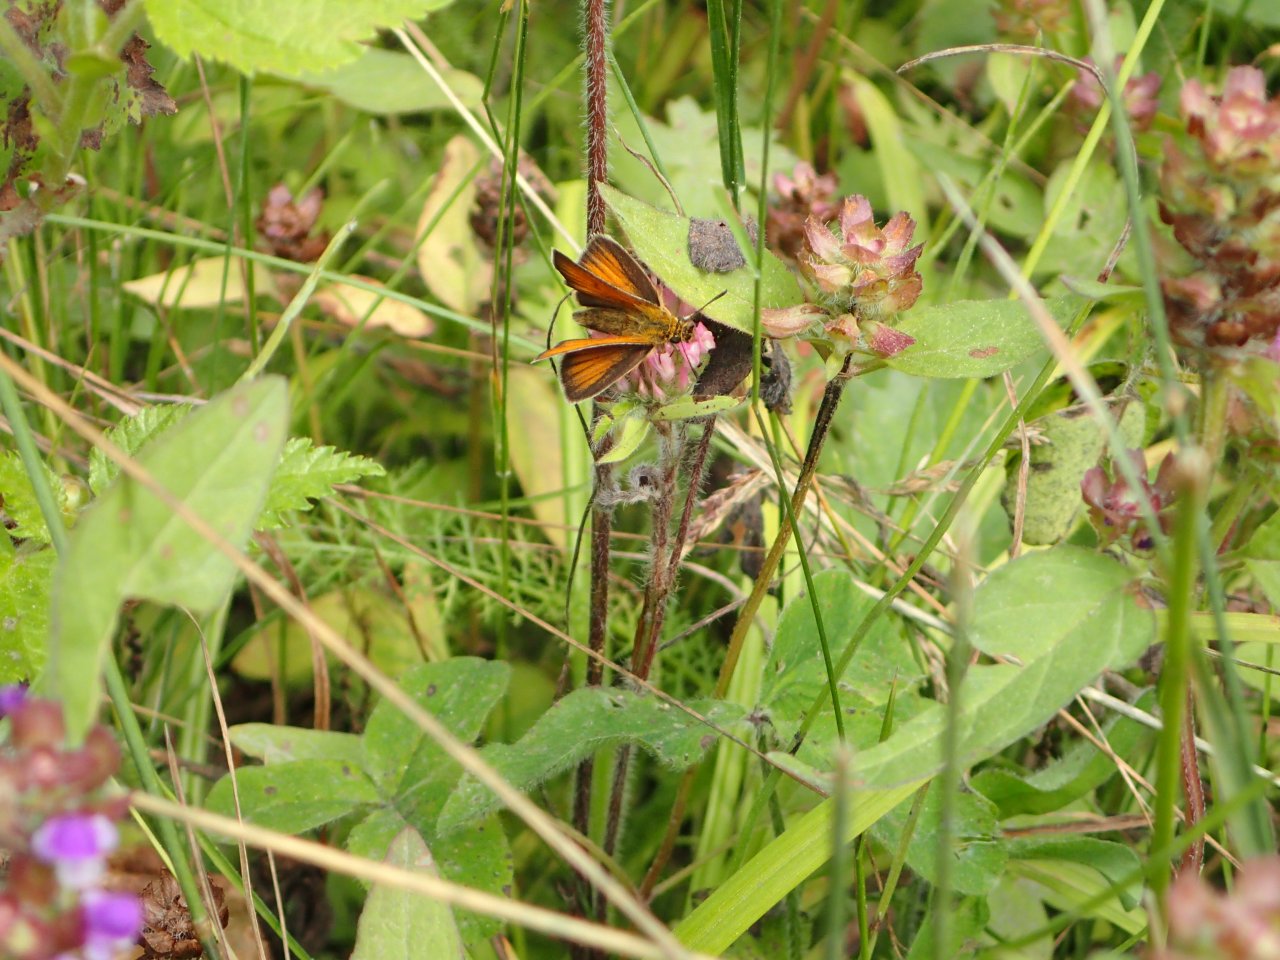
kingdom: Animalia
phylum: Arthropoda
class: Insecta
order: Lepidoptera
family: Hesperiidae
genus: Thymelicus
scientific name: Thymelicus lineola
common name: European Skipper
